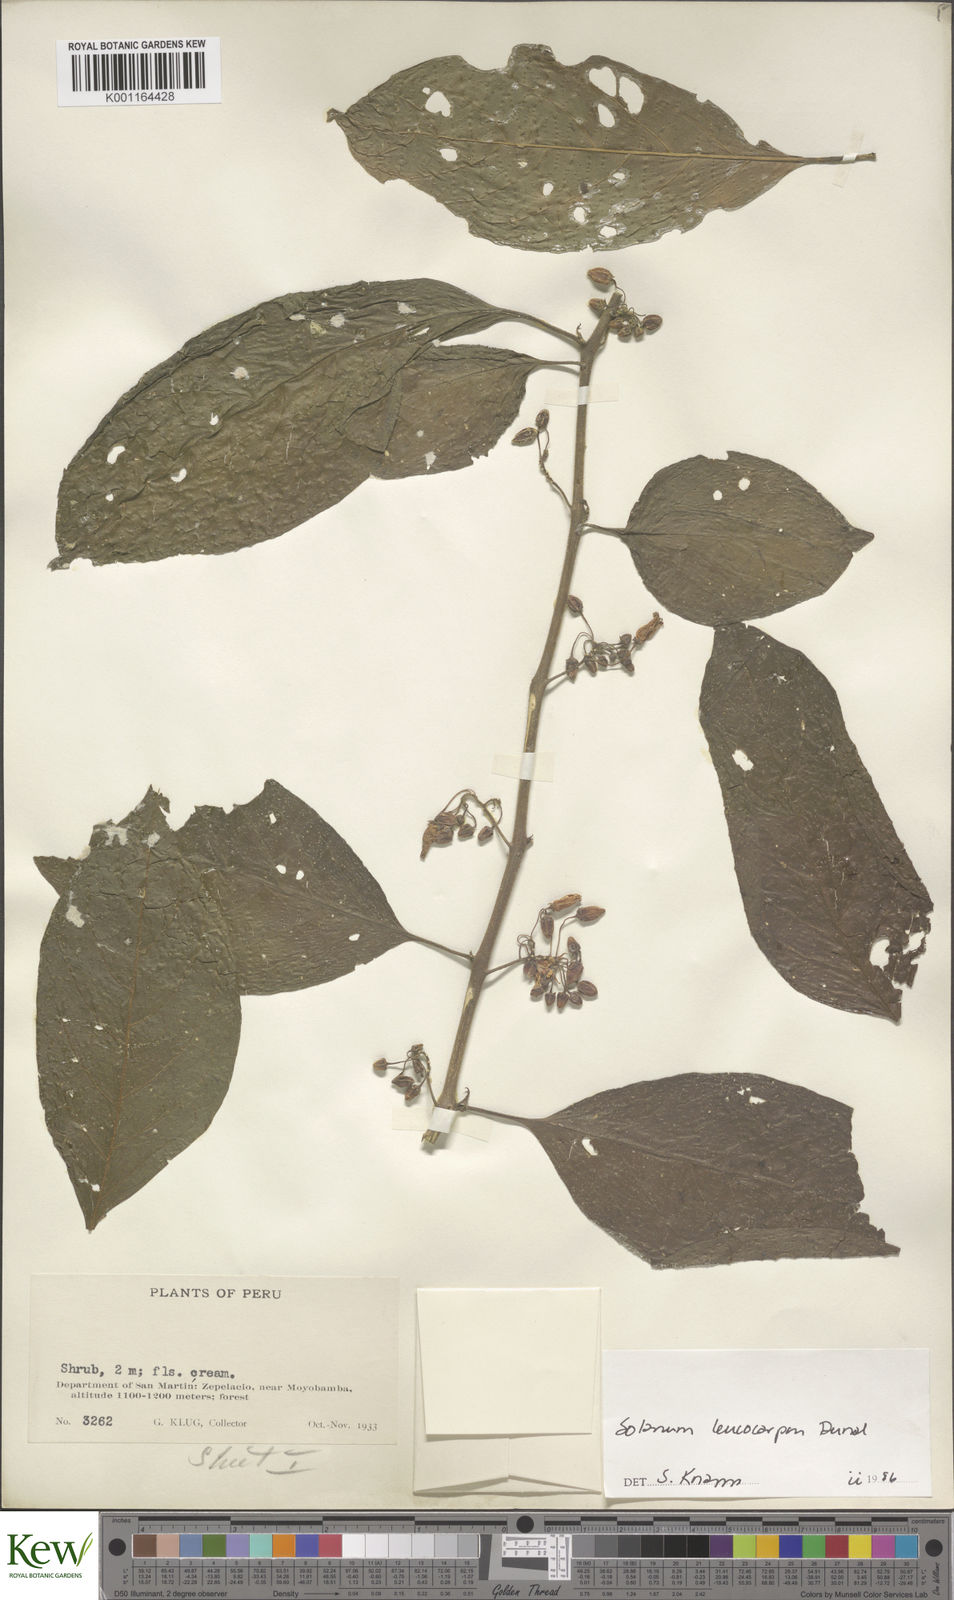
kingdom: Plantae
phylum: Tracheophyta
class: Magnoliopsida
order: Solanales
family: Solanaceae
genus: Solanum
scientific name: Solanum leucocarpon
